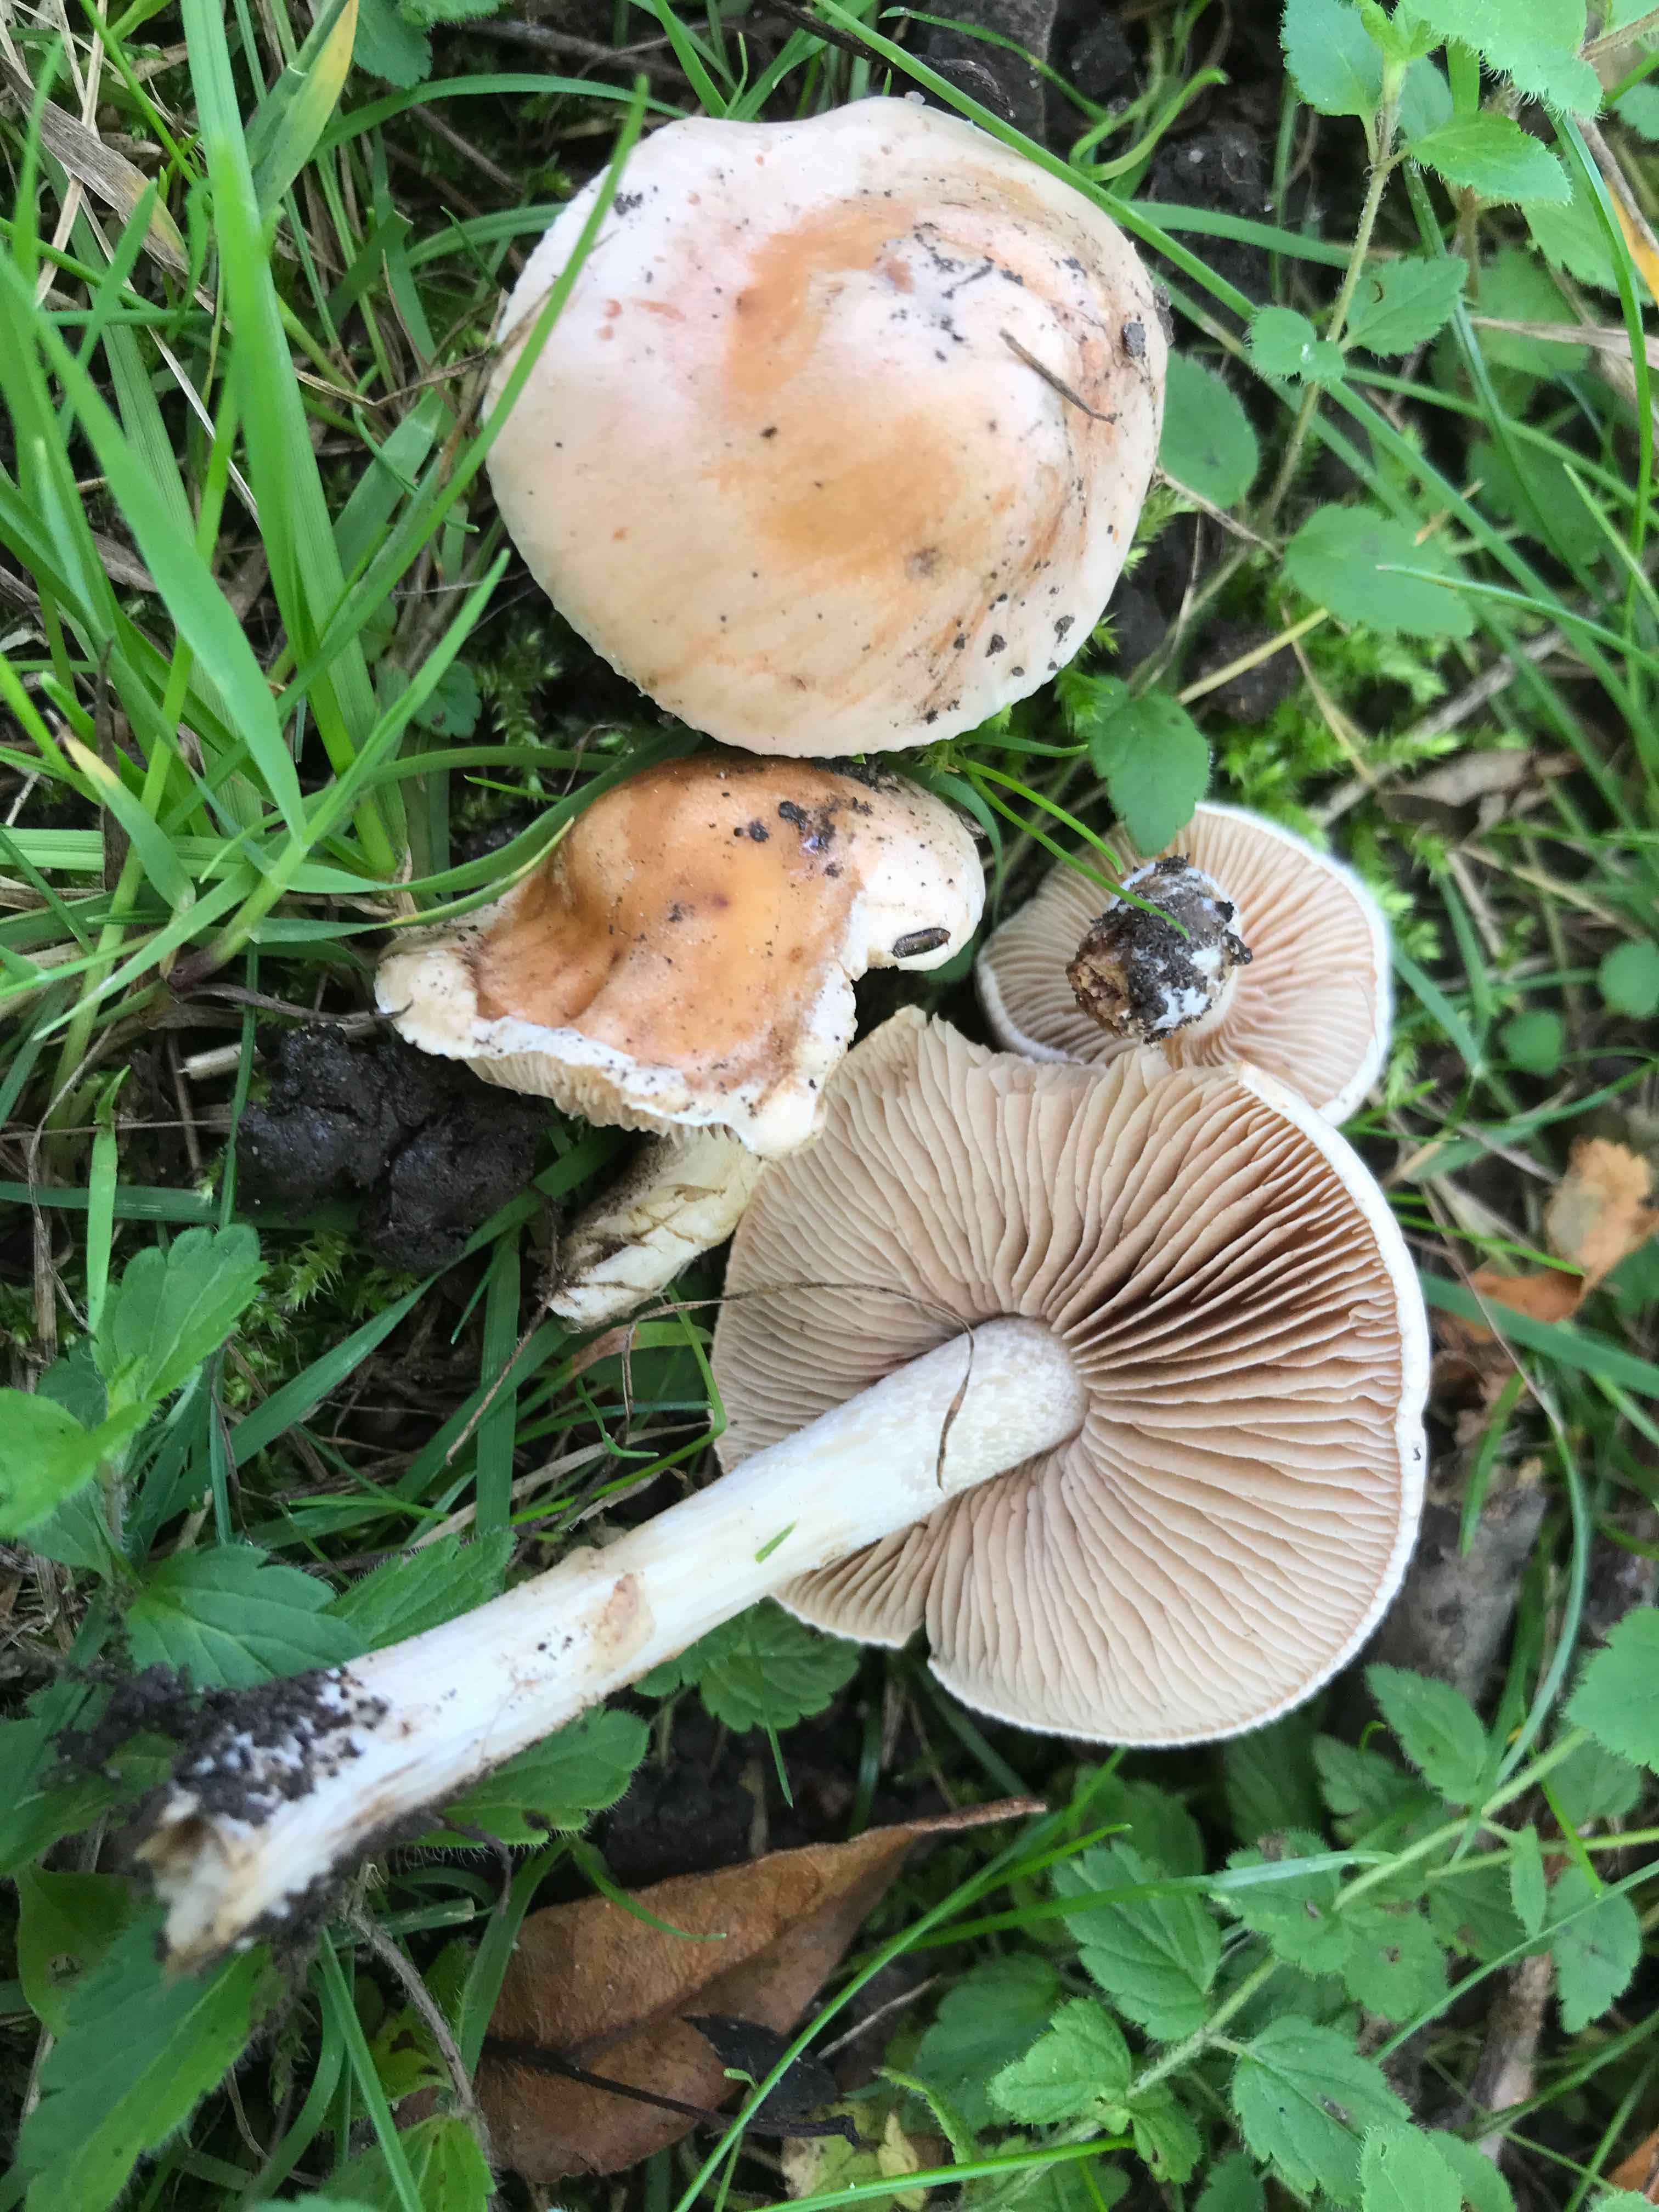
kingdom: Fungi
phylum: Basidiomycota
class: Agaricomycetes
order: Agaricales
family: Hymenogastraceae
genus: Hebeloma
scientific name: Hebeloma
